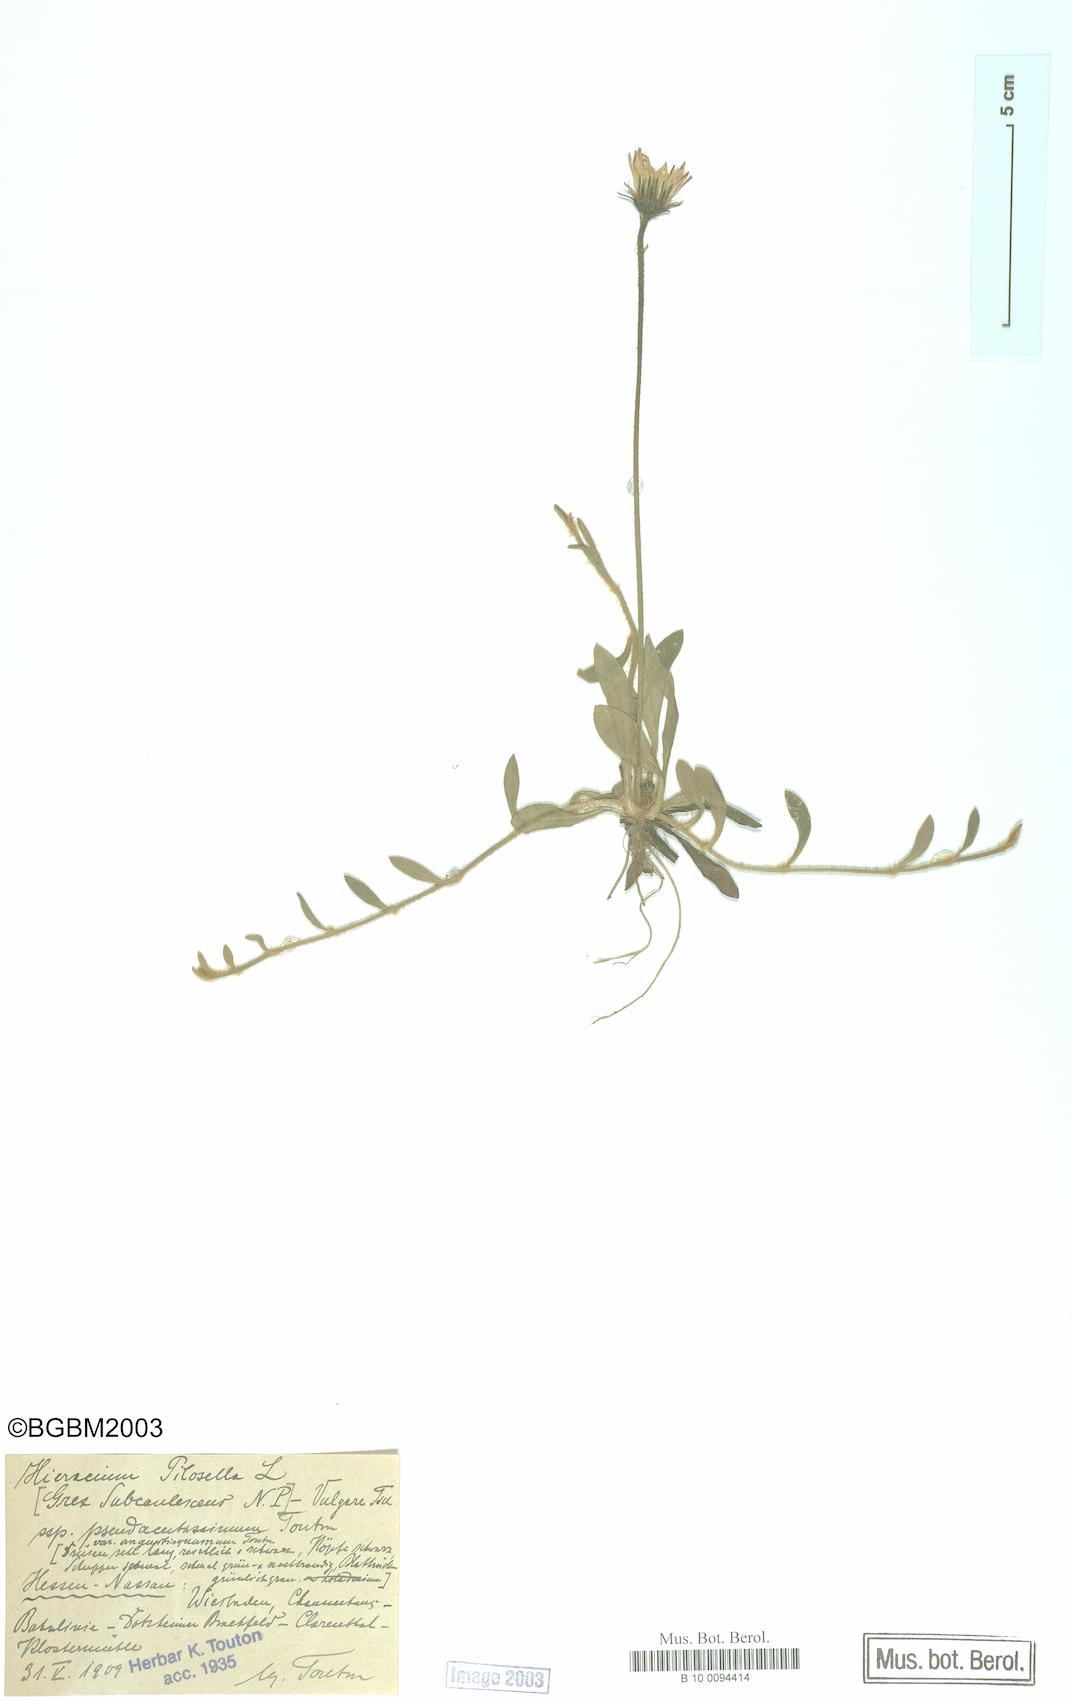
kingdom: Plantae
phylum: Tracheophyta
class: Magnoliopsida
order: Asterales
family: Asteraceae
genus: Pilosella
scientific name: Pilosella officinarum
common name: Mouse-ear hawkweed
